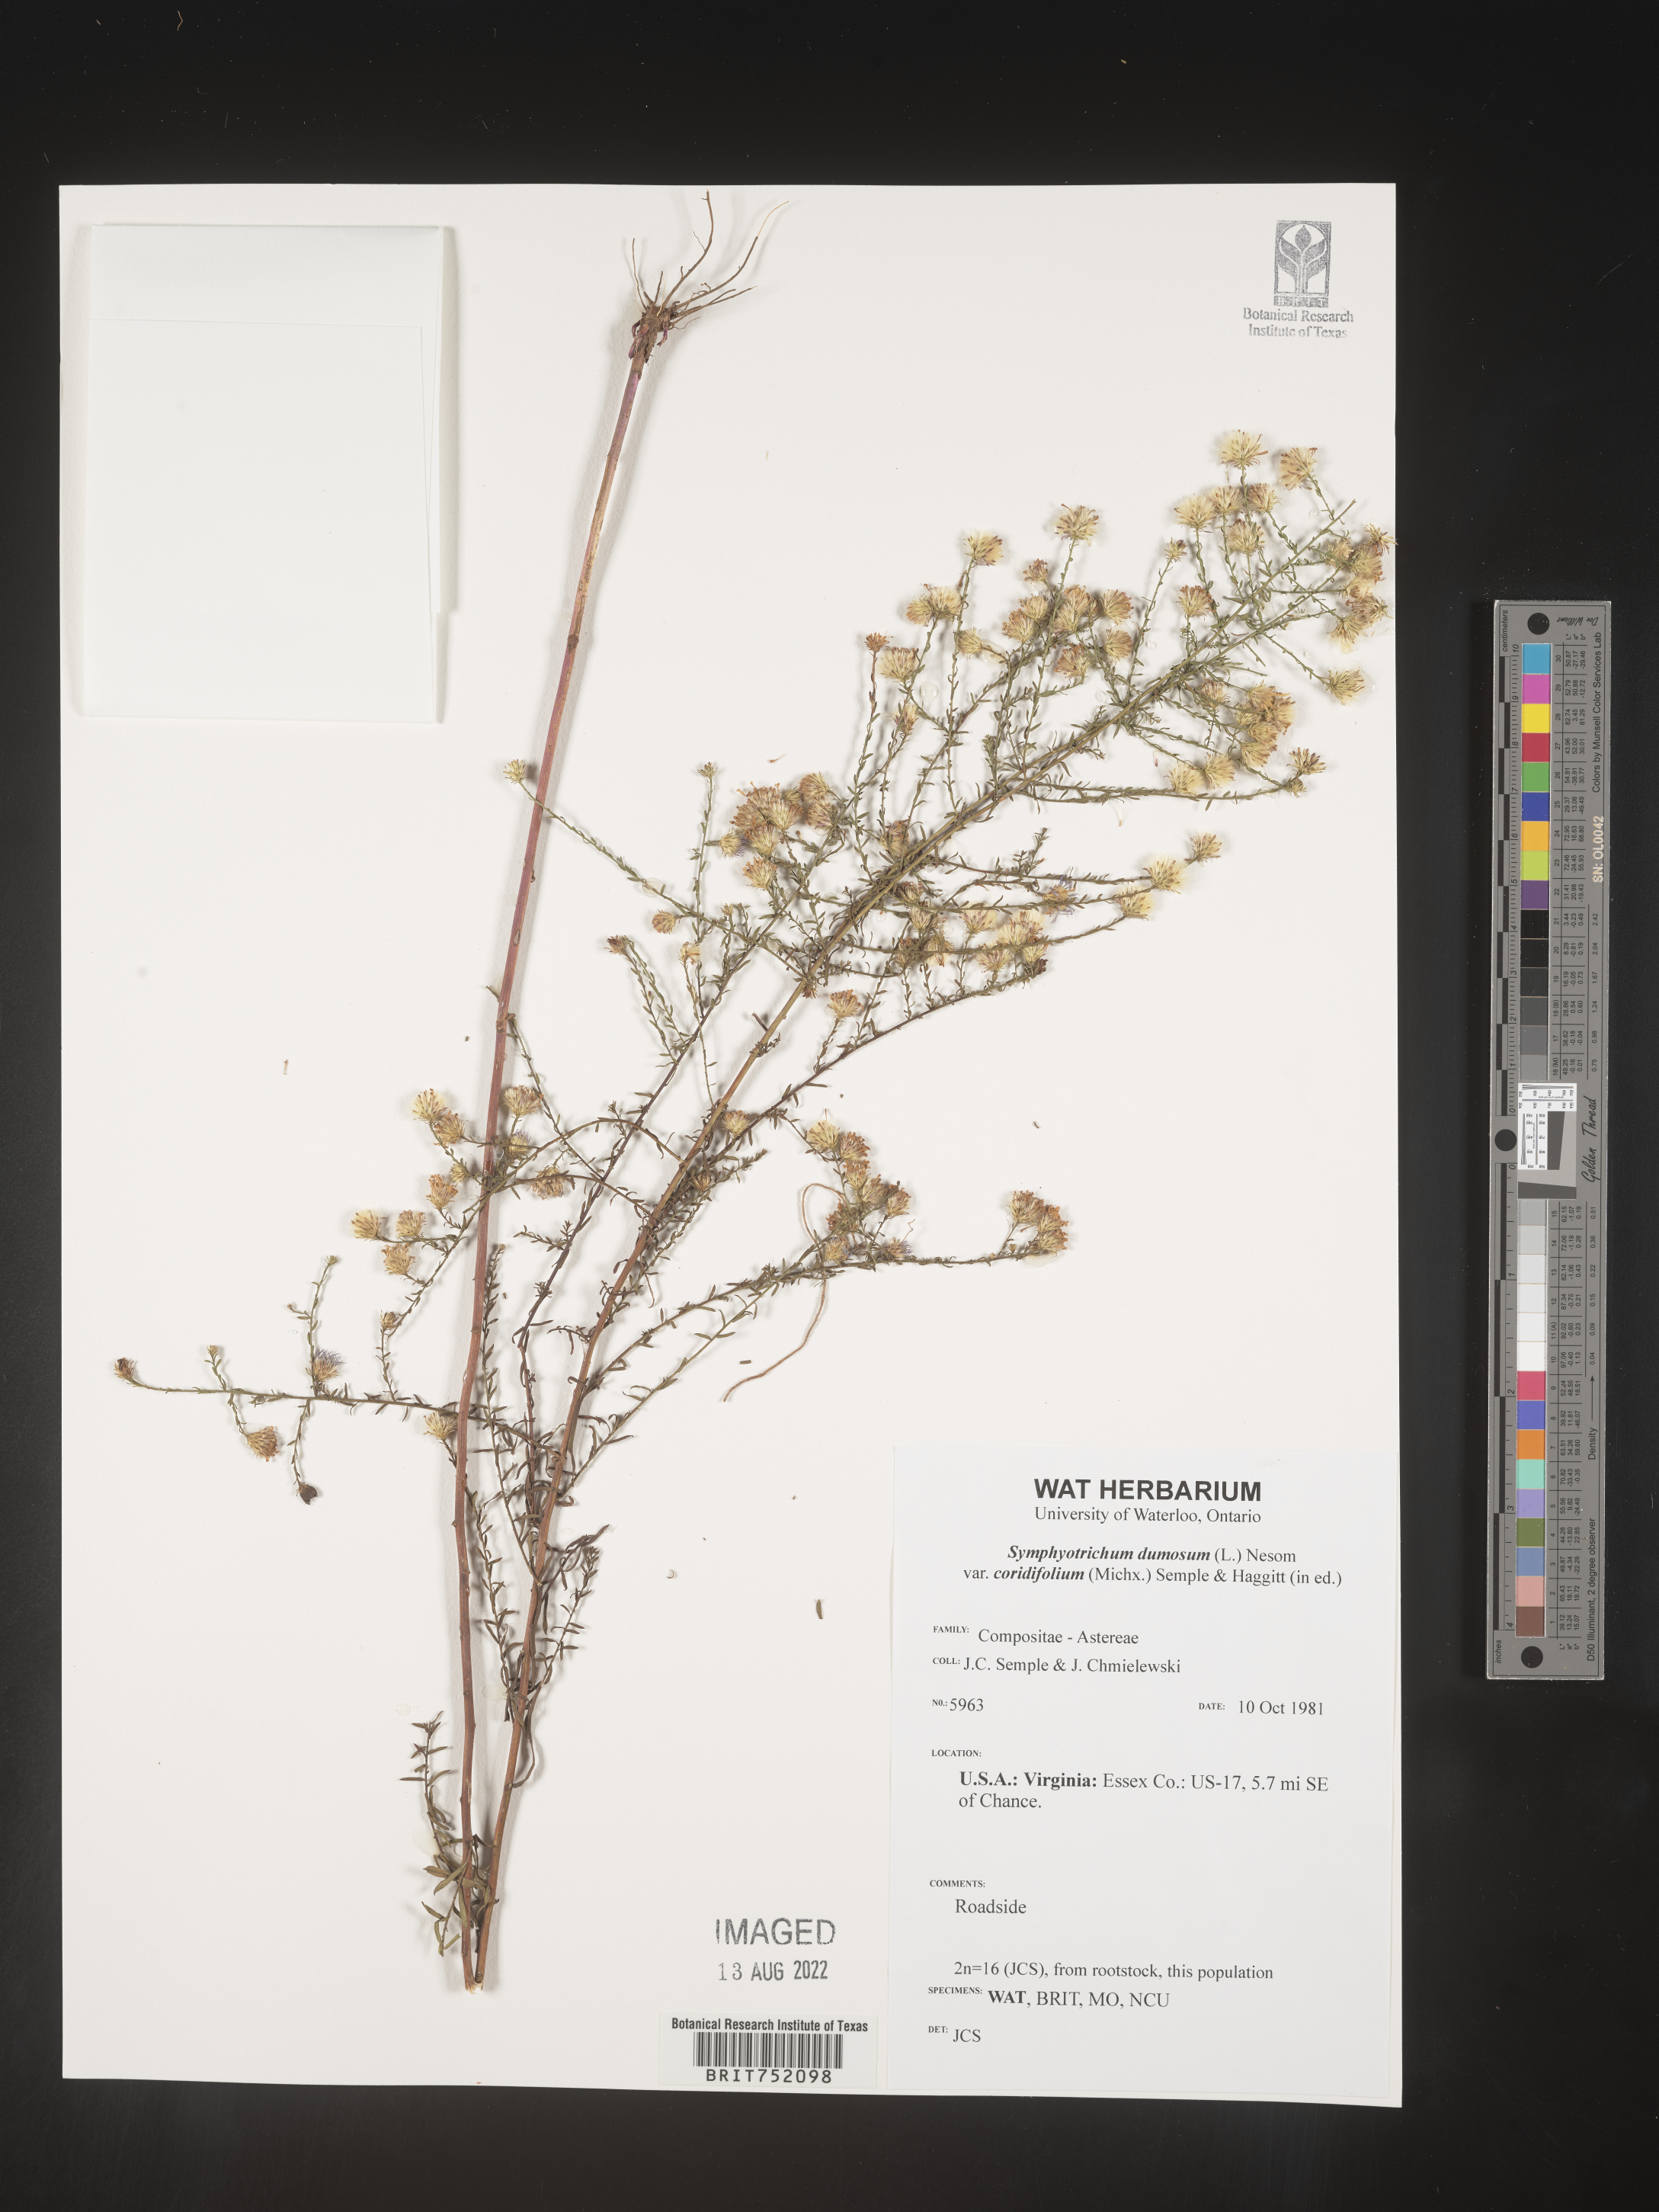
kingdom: Plantae
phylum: Tracheophyta
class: Magnoliopsida
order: Asterales
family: Asteraceae
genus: Symphyotrichum
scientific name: Symphyotrichum dumosum
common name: Bushy aster
